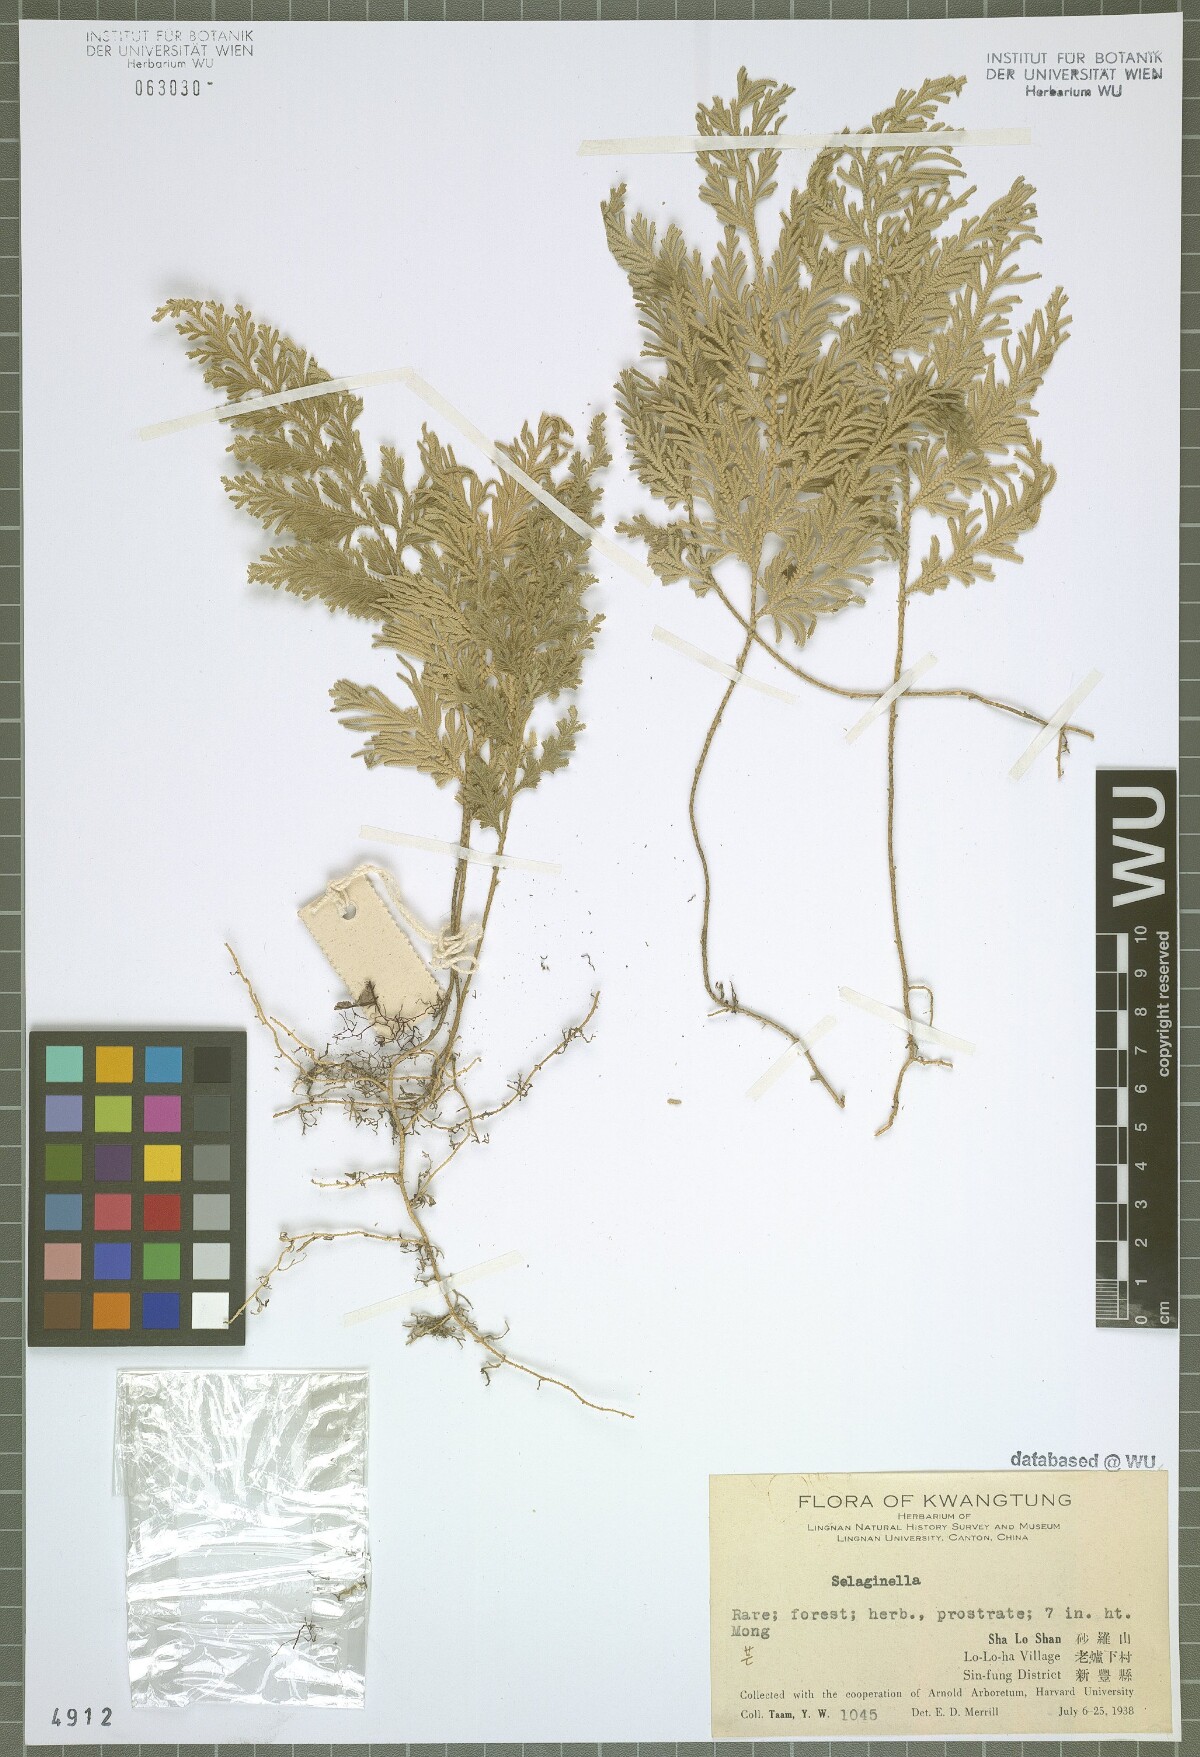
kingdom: Plantae
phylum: Tracheophyta
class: Lycopodiopsida
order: Selaginellales
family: Selaginellaceae
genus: Selaginella
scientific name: Selaginella
